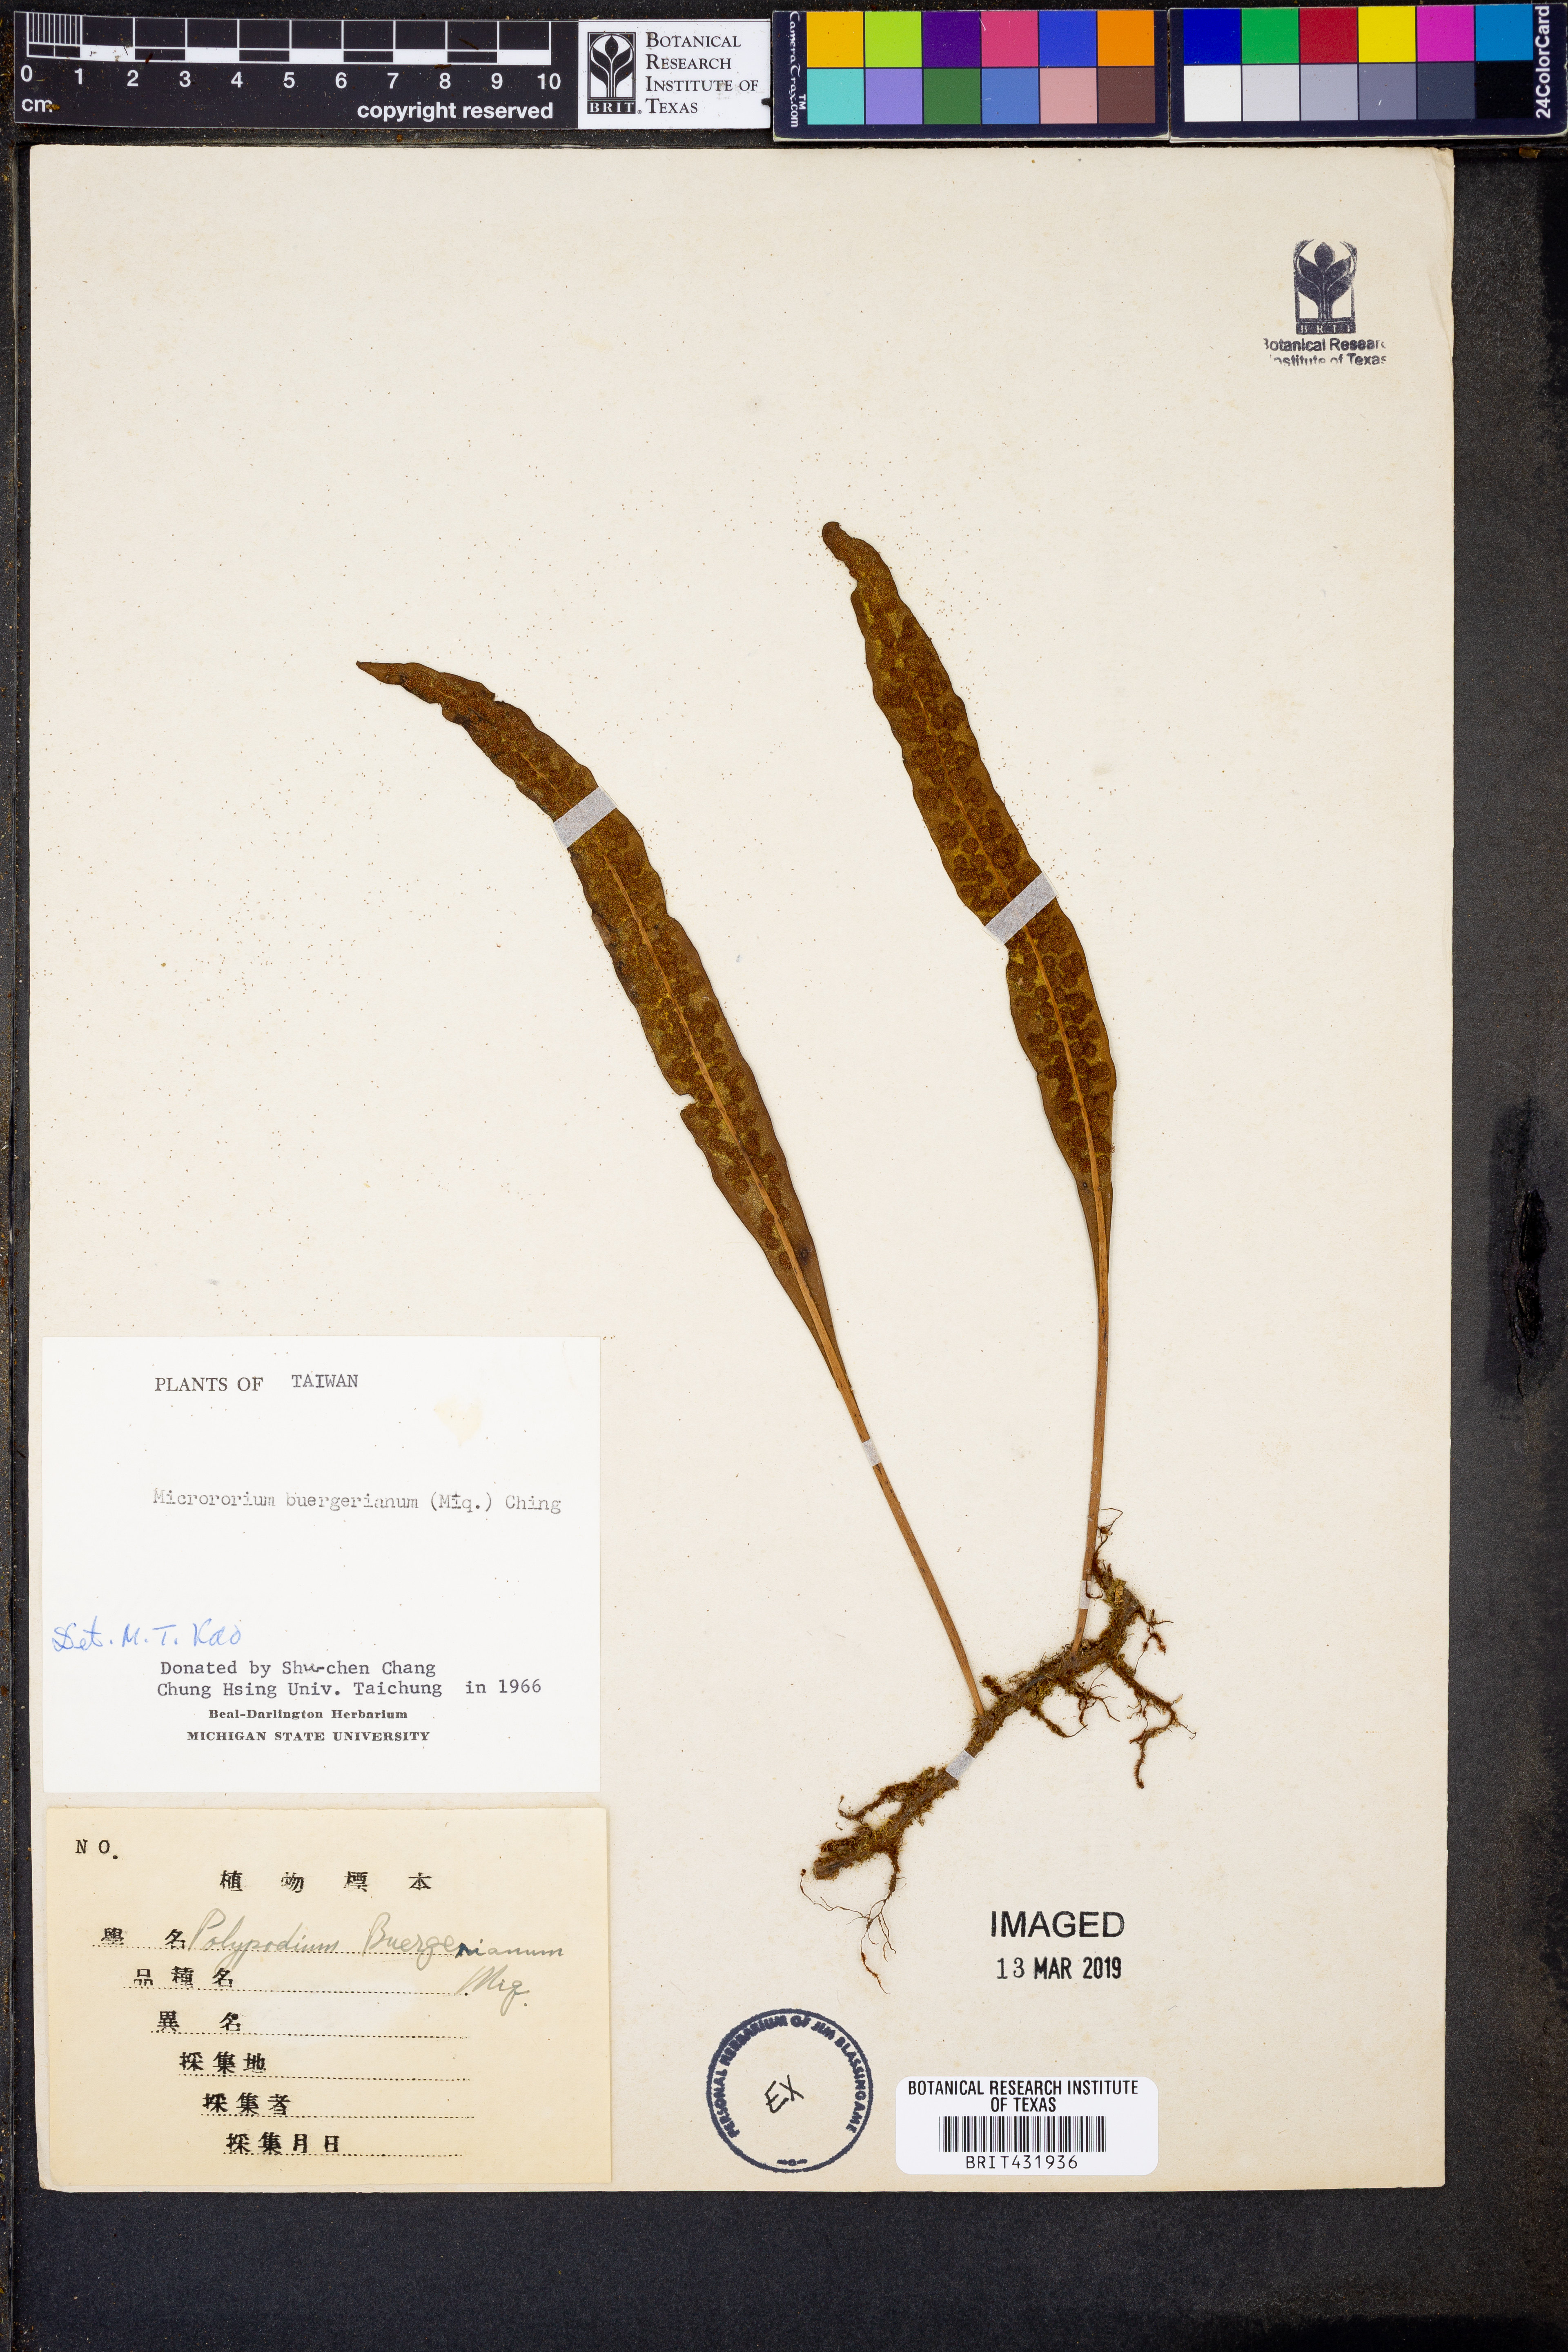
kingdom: Plantae
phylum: Tracheophyta
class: Polypodiopsida
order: Polypodiales
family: Polypodiaceae
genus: Lepisorus
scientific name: Lepisorus buergerianus
